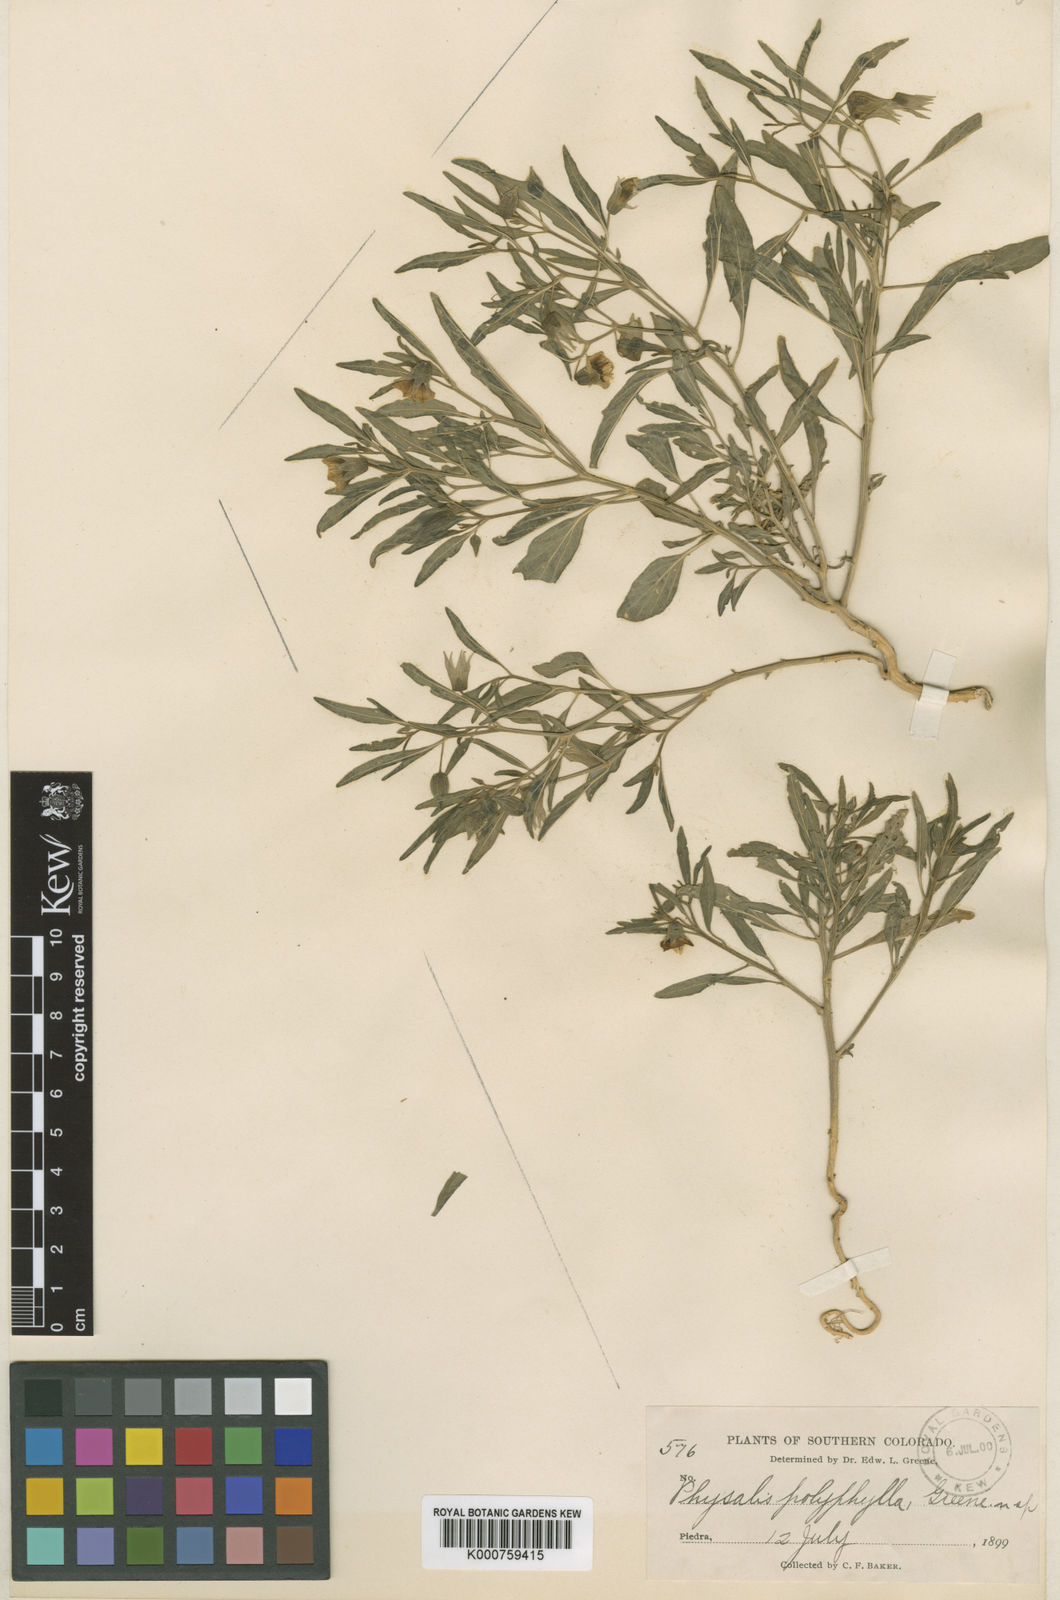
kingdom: Plantae
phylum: Tracheophyta
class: Magnoliopsida
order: Solanales
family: Solanaceae
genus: Physalis
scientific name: Physalis longifolia
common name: Common ground-cherry
